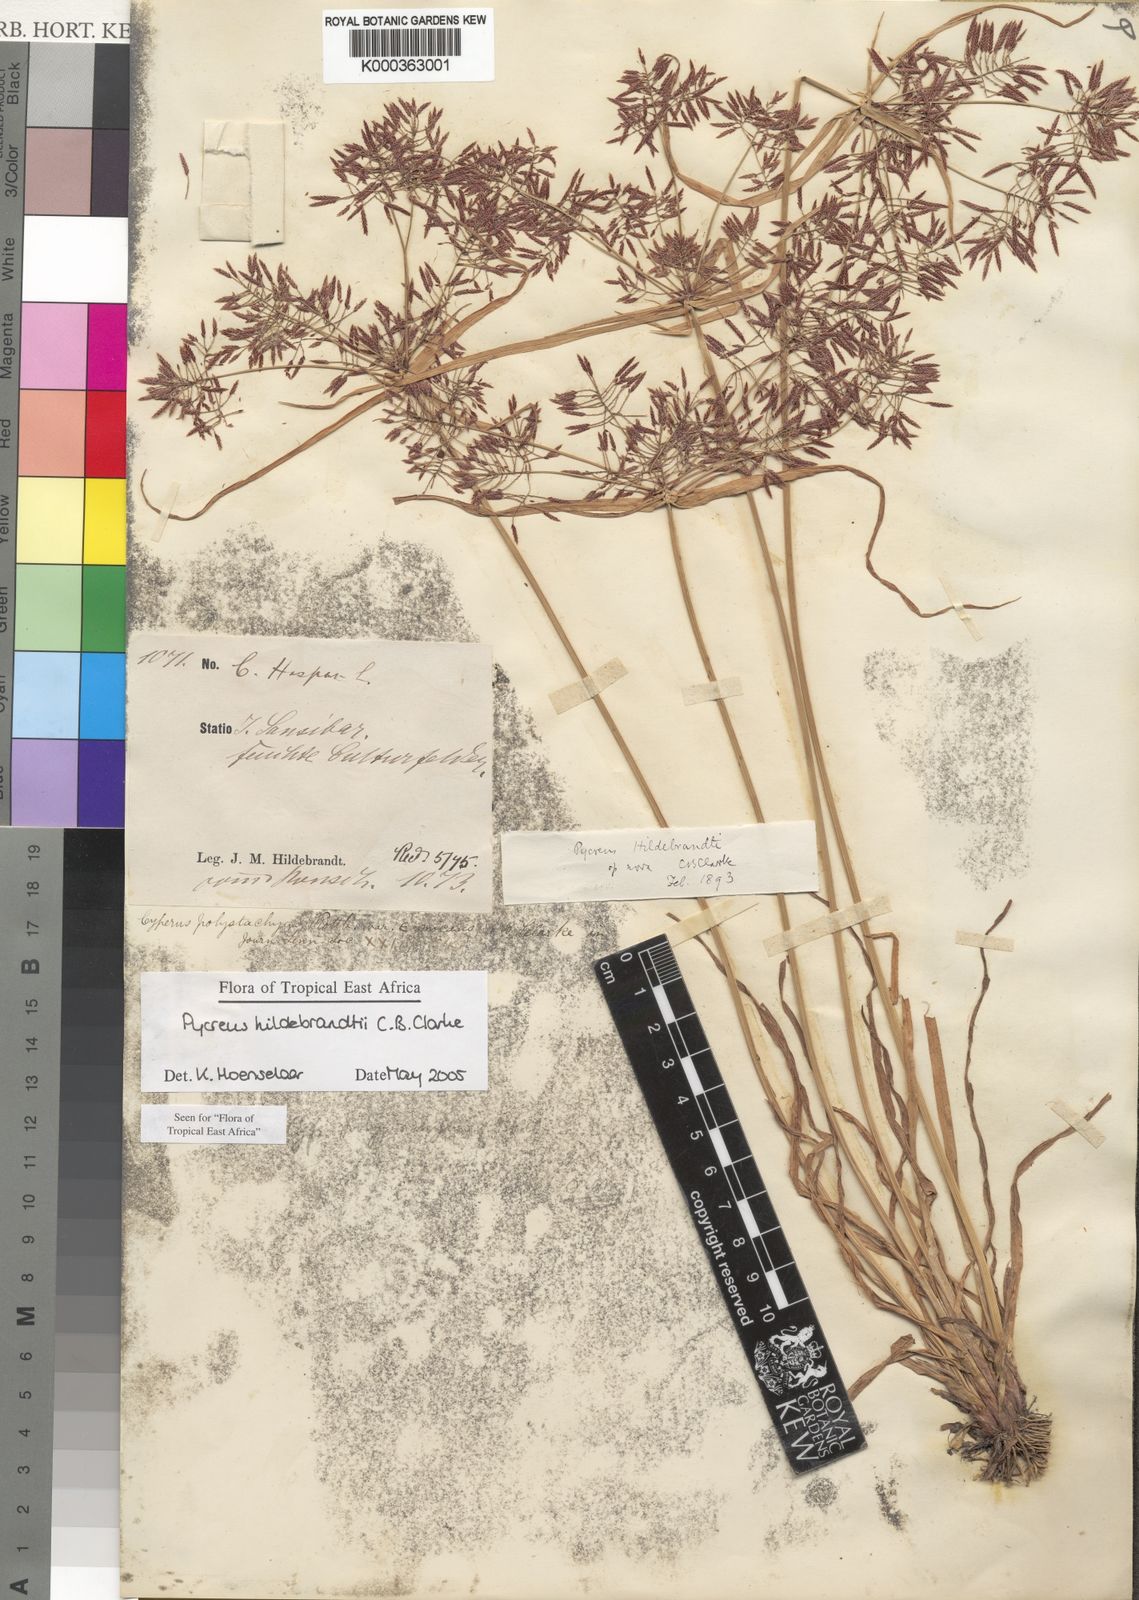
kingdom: Plantae
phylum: Tracheophyta
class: Liliopsida
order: Poales
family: Cyperaceae
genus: Cyperus
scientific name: Cyperus
